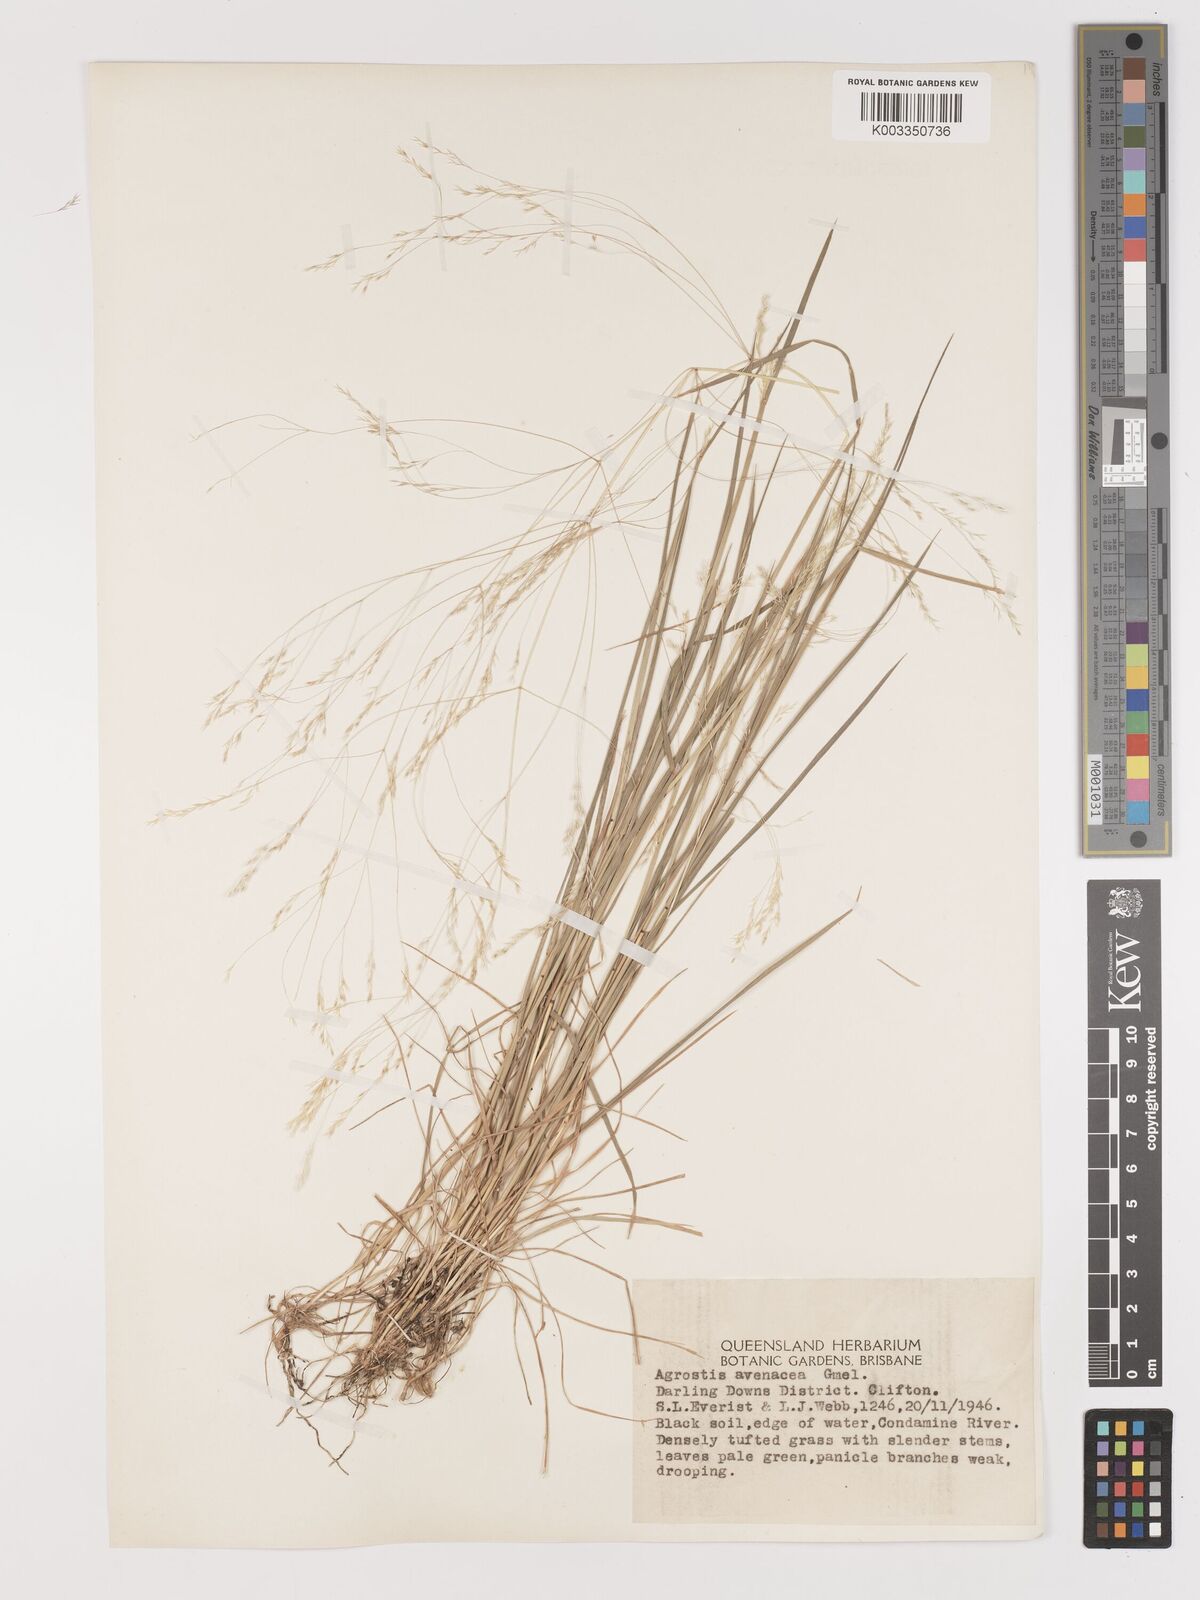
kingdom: Plantae
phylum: Tracheophyta
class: Liliopsida
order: Poales
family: Poaceae
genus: Lachnagrostis
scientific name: Lachnagrostis filiformis
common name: Bentgrass
